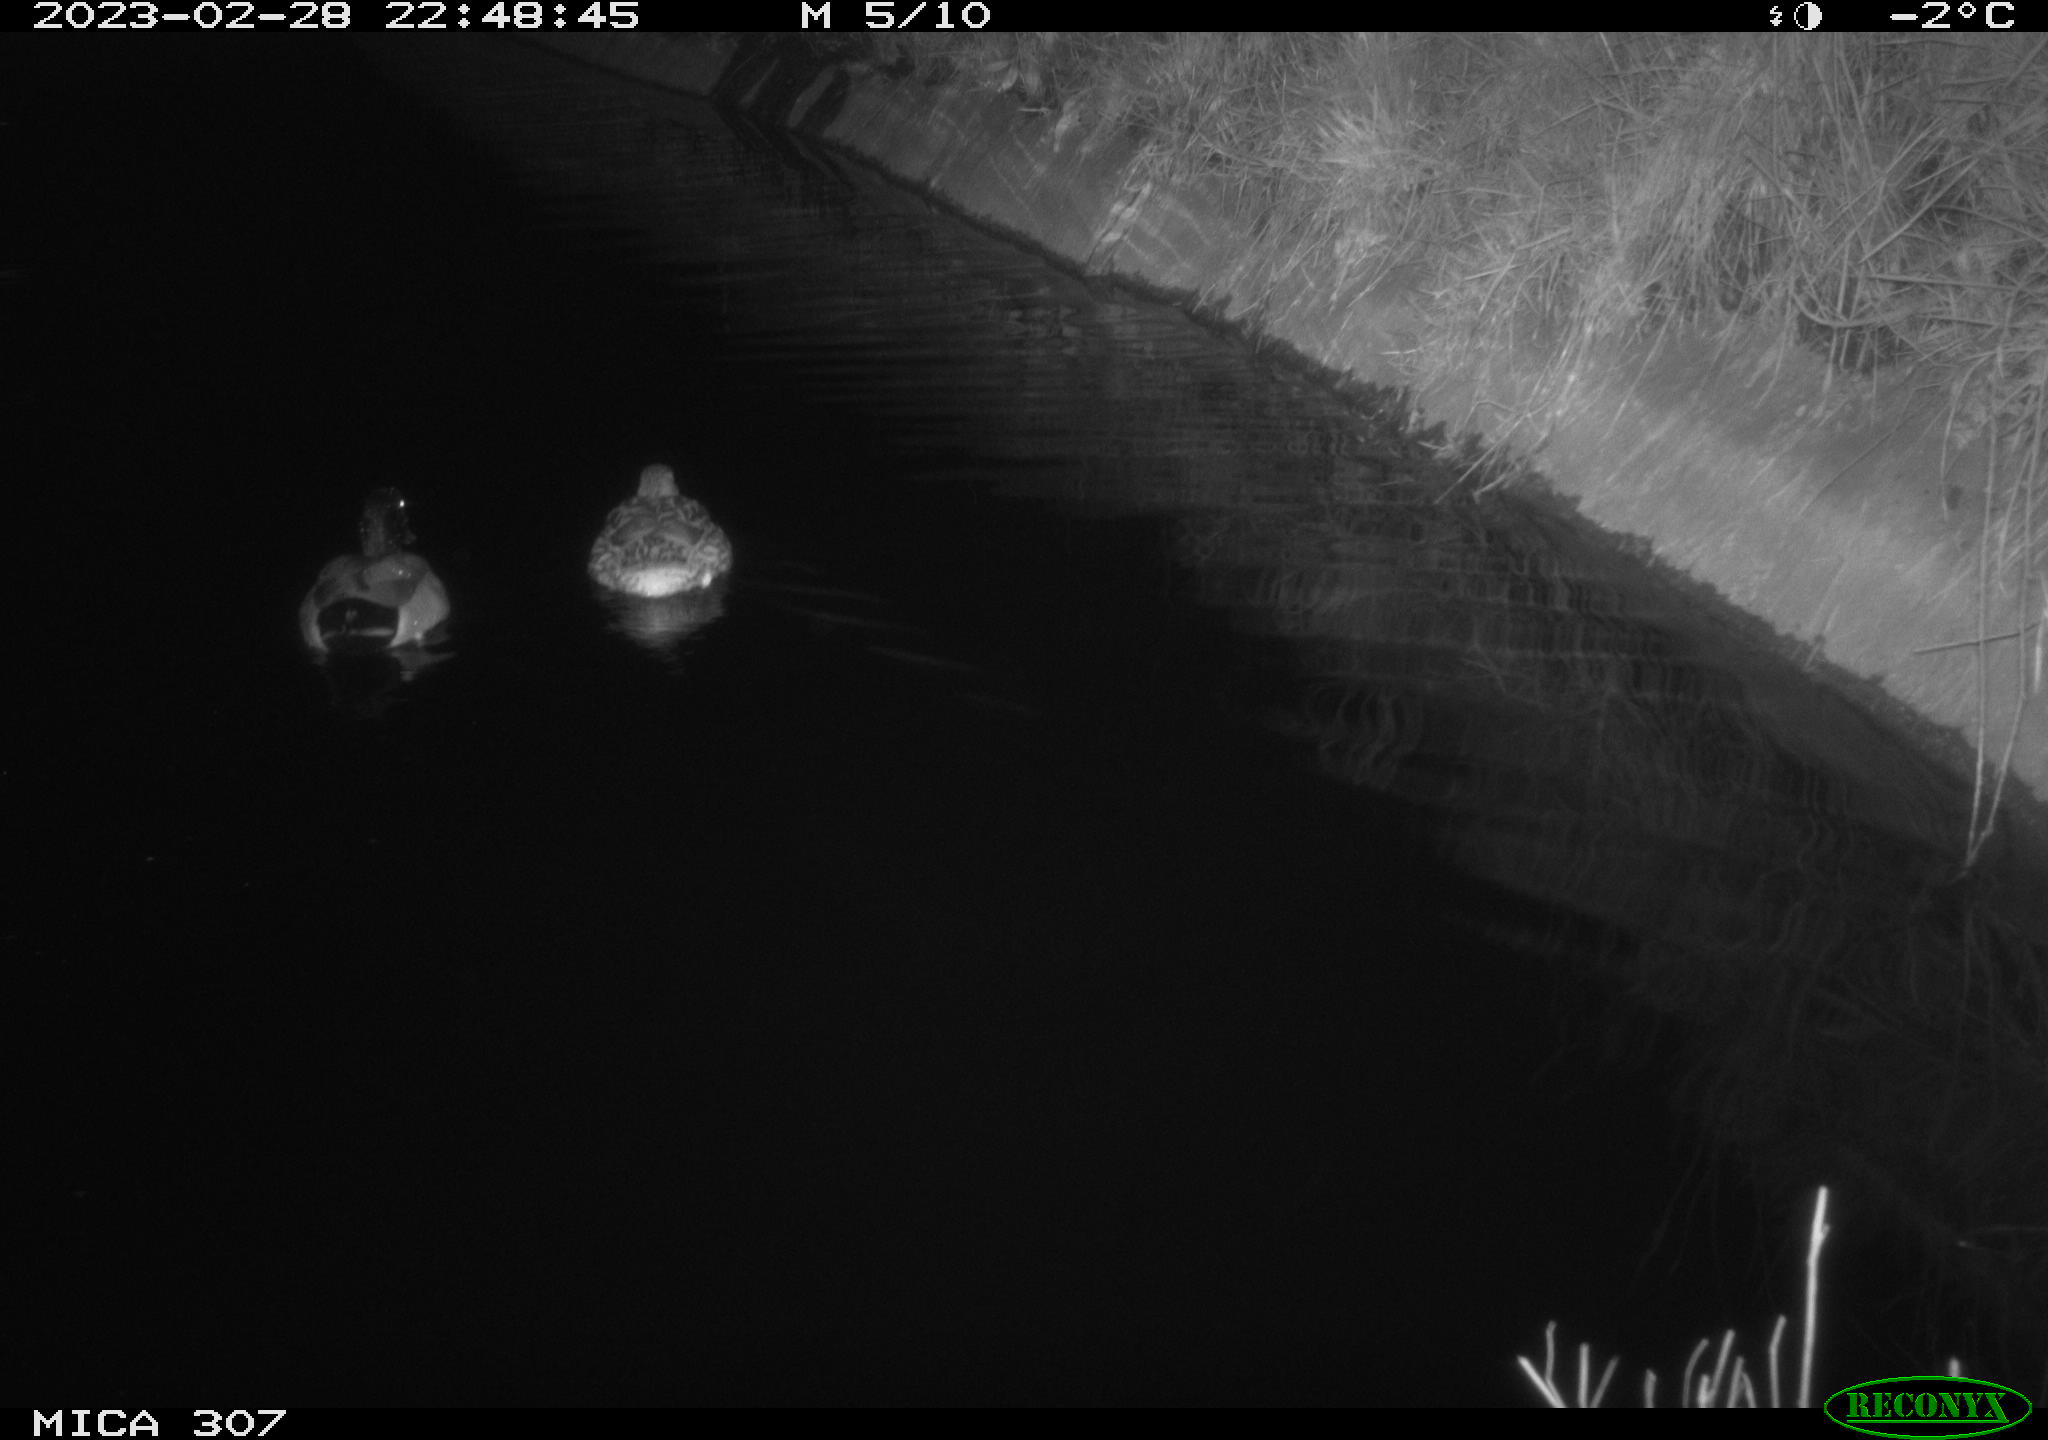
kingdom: Animalia
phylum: Chordata
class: Aves
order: Anseriformes
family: Anatidae
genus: Anas
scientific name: Anas
